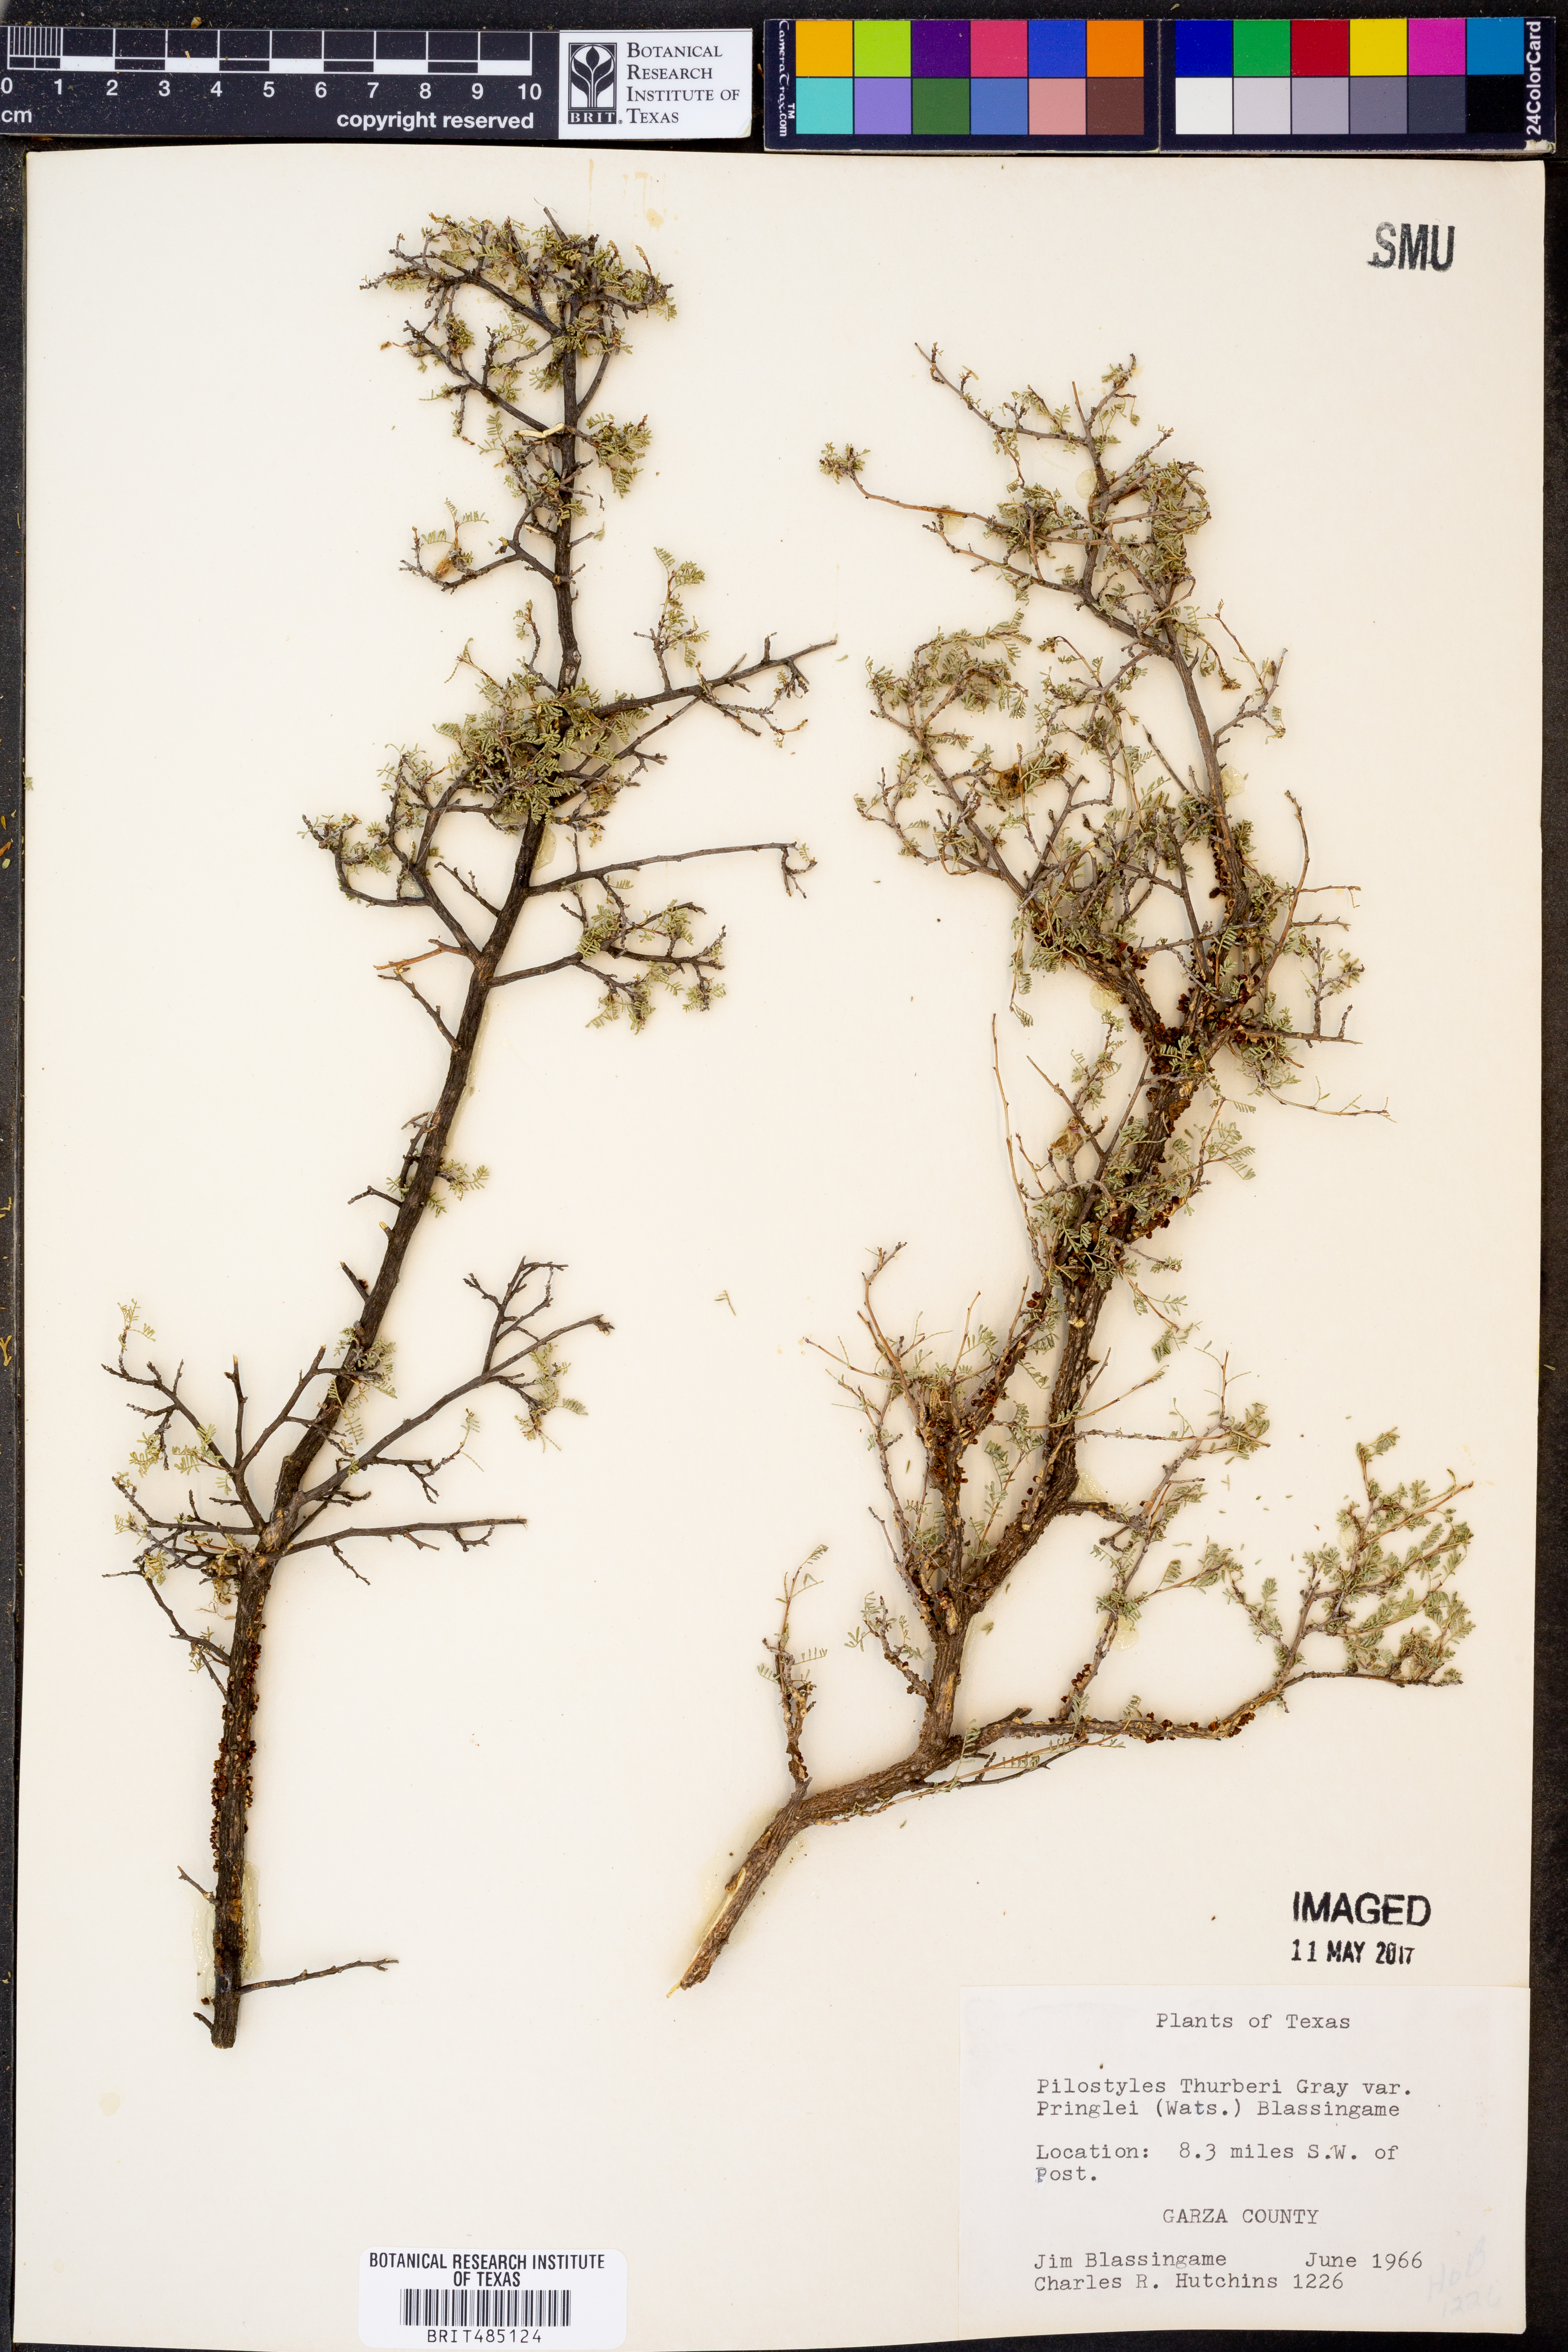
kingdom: Plantae
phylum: Tracheophyta
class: Magnoliopsida
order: Cucurbitales
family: Apodanthaceae
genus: Pilostyles
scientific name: Pilostyles thurberi
